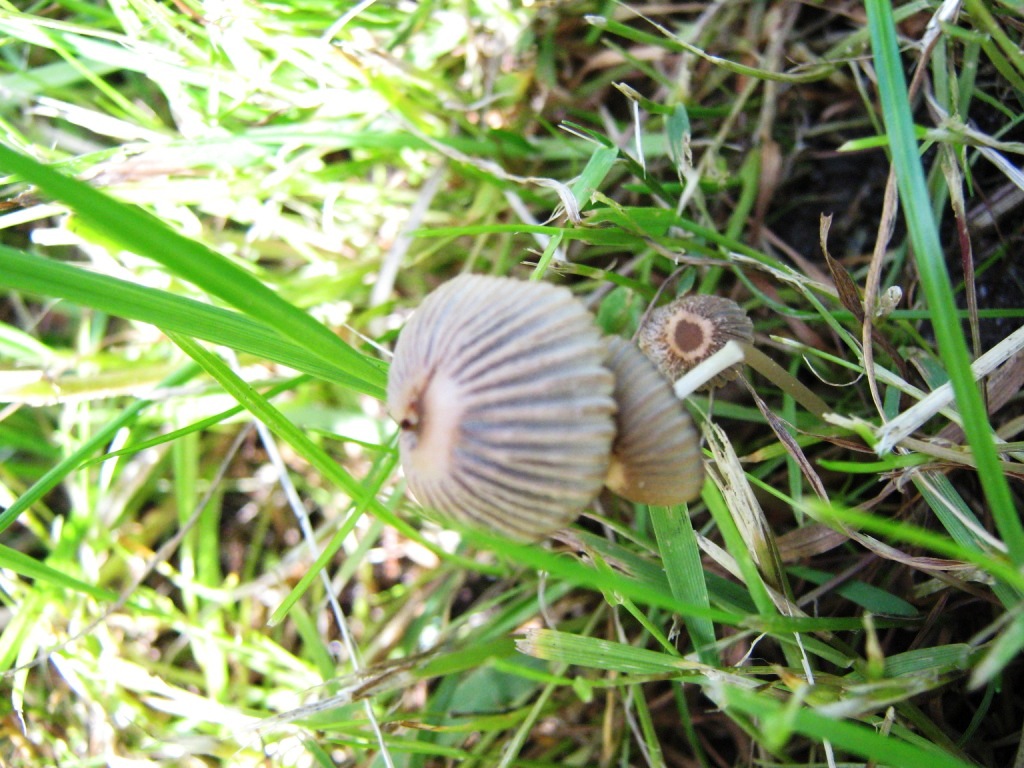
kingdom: Fungi
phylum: Basidiomycota
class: Agaricomycetes
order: Agaricales
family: Psathyrellaceae
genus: Parasola
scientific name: Parasola schroeteri
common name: bredsporet hjulhat
